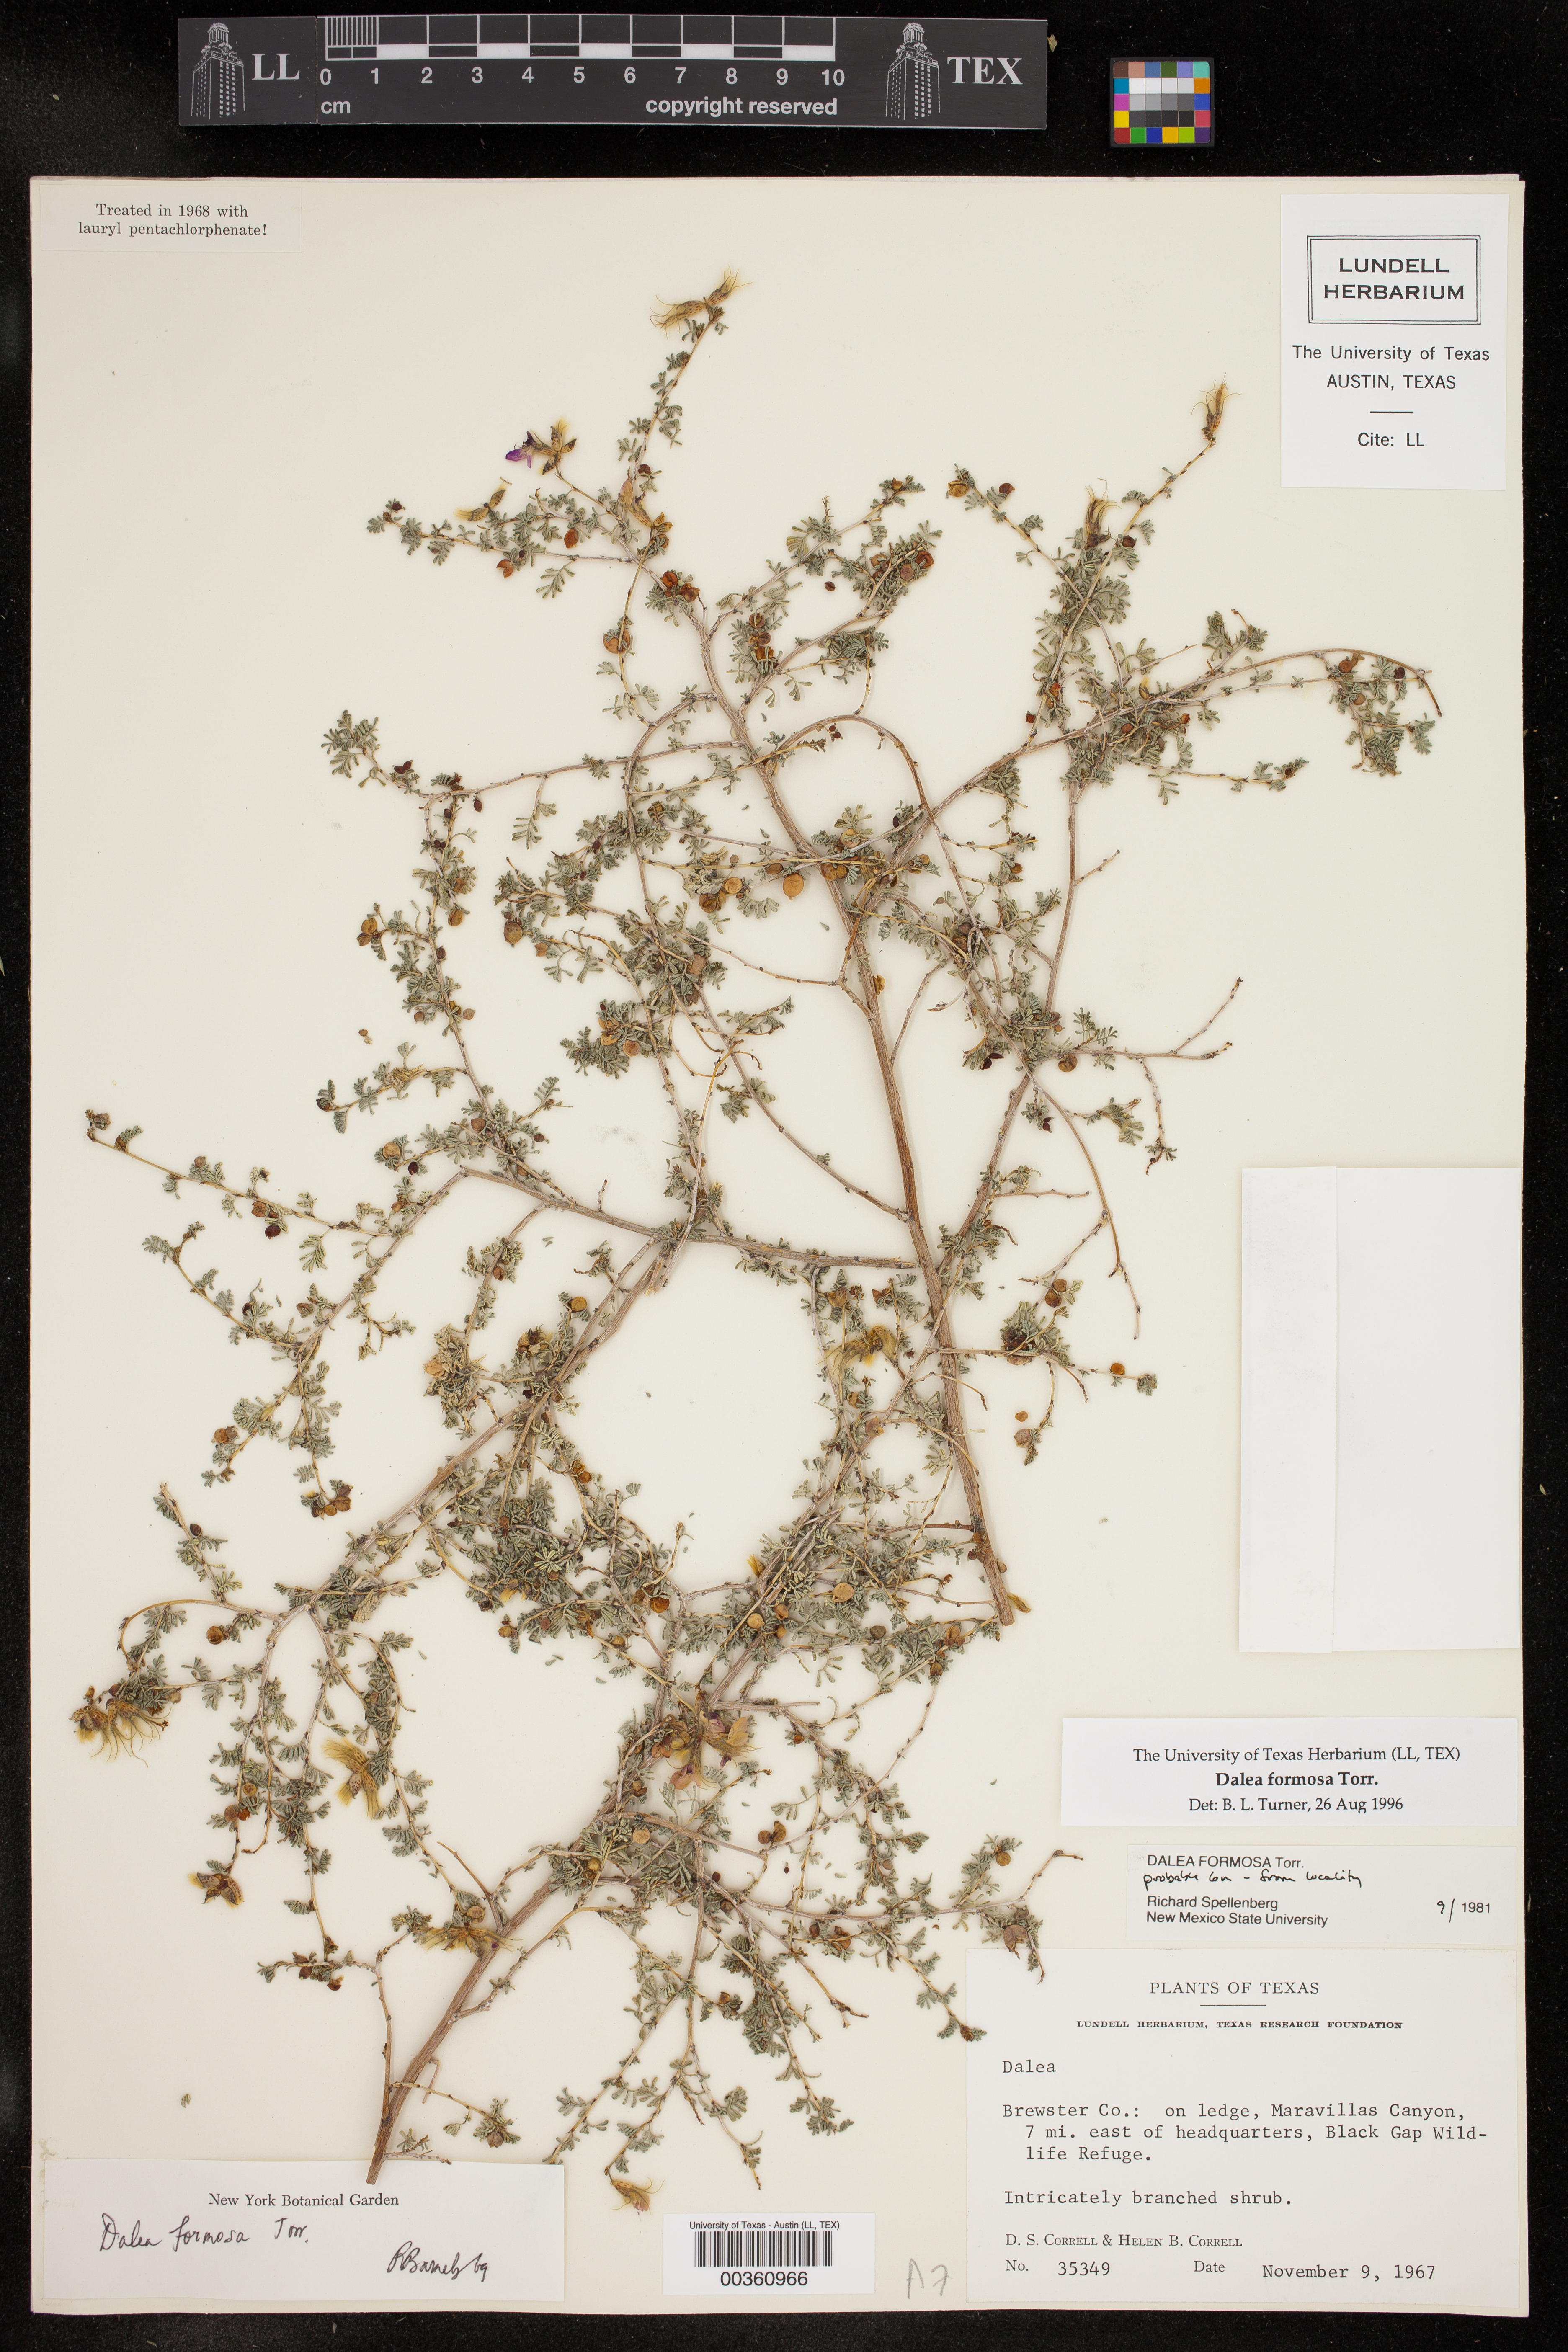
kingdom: Plantae
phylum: Tracheophyta
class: Magnoliopsida
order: Fabales
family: Fabaceae
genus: Dalea
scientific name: Dalea formosa
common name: Feather-plume dalea
